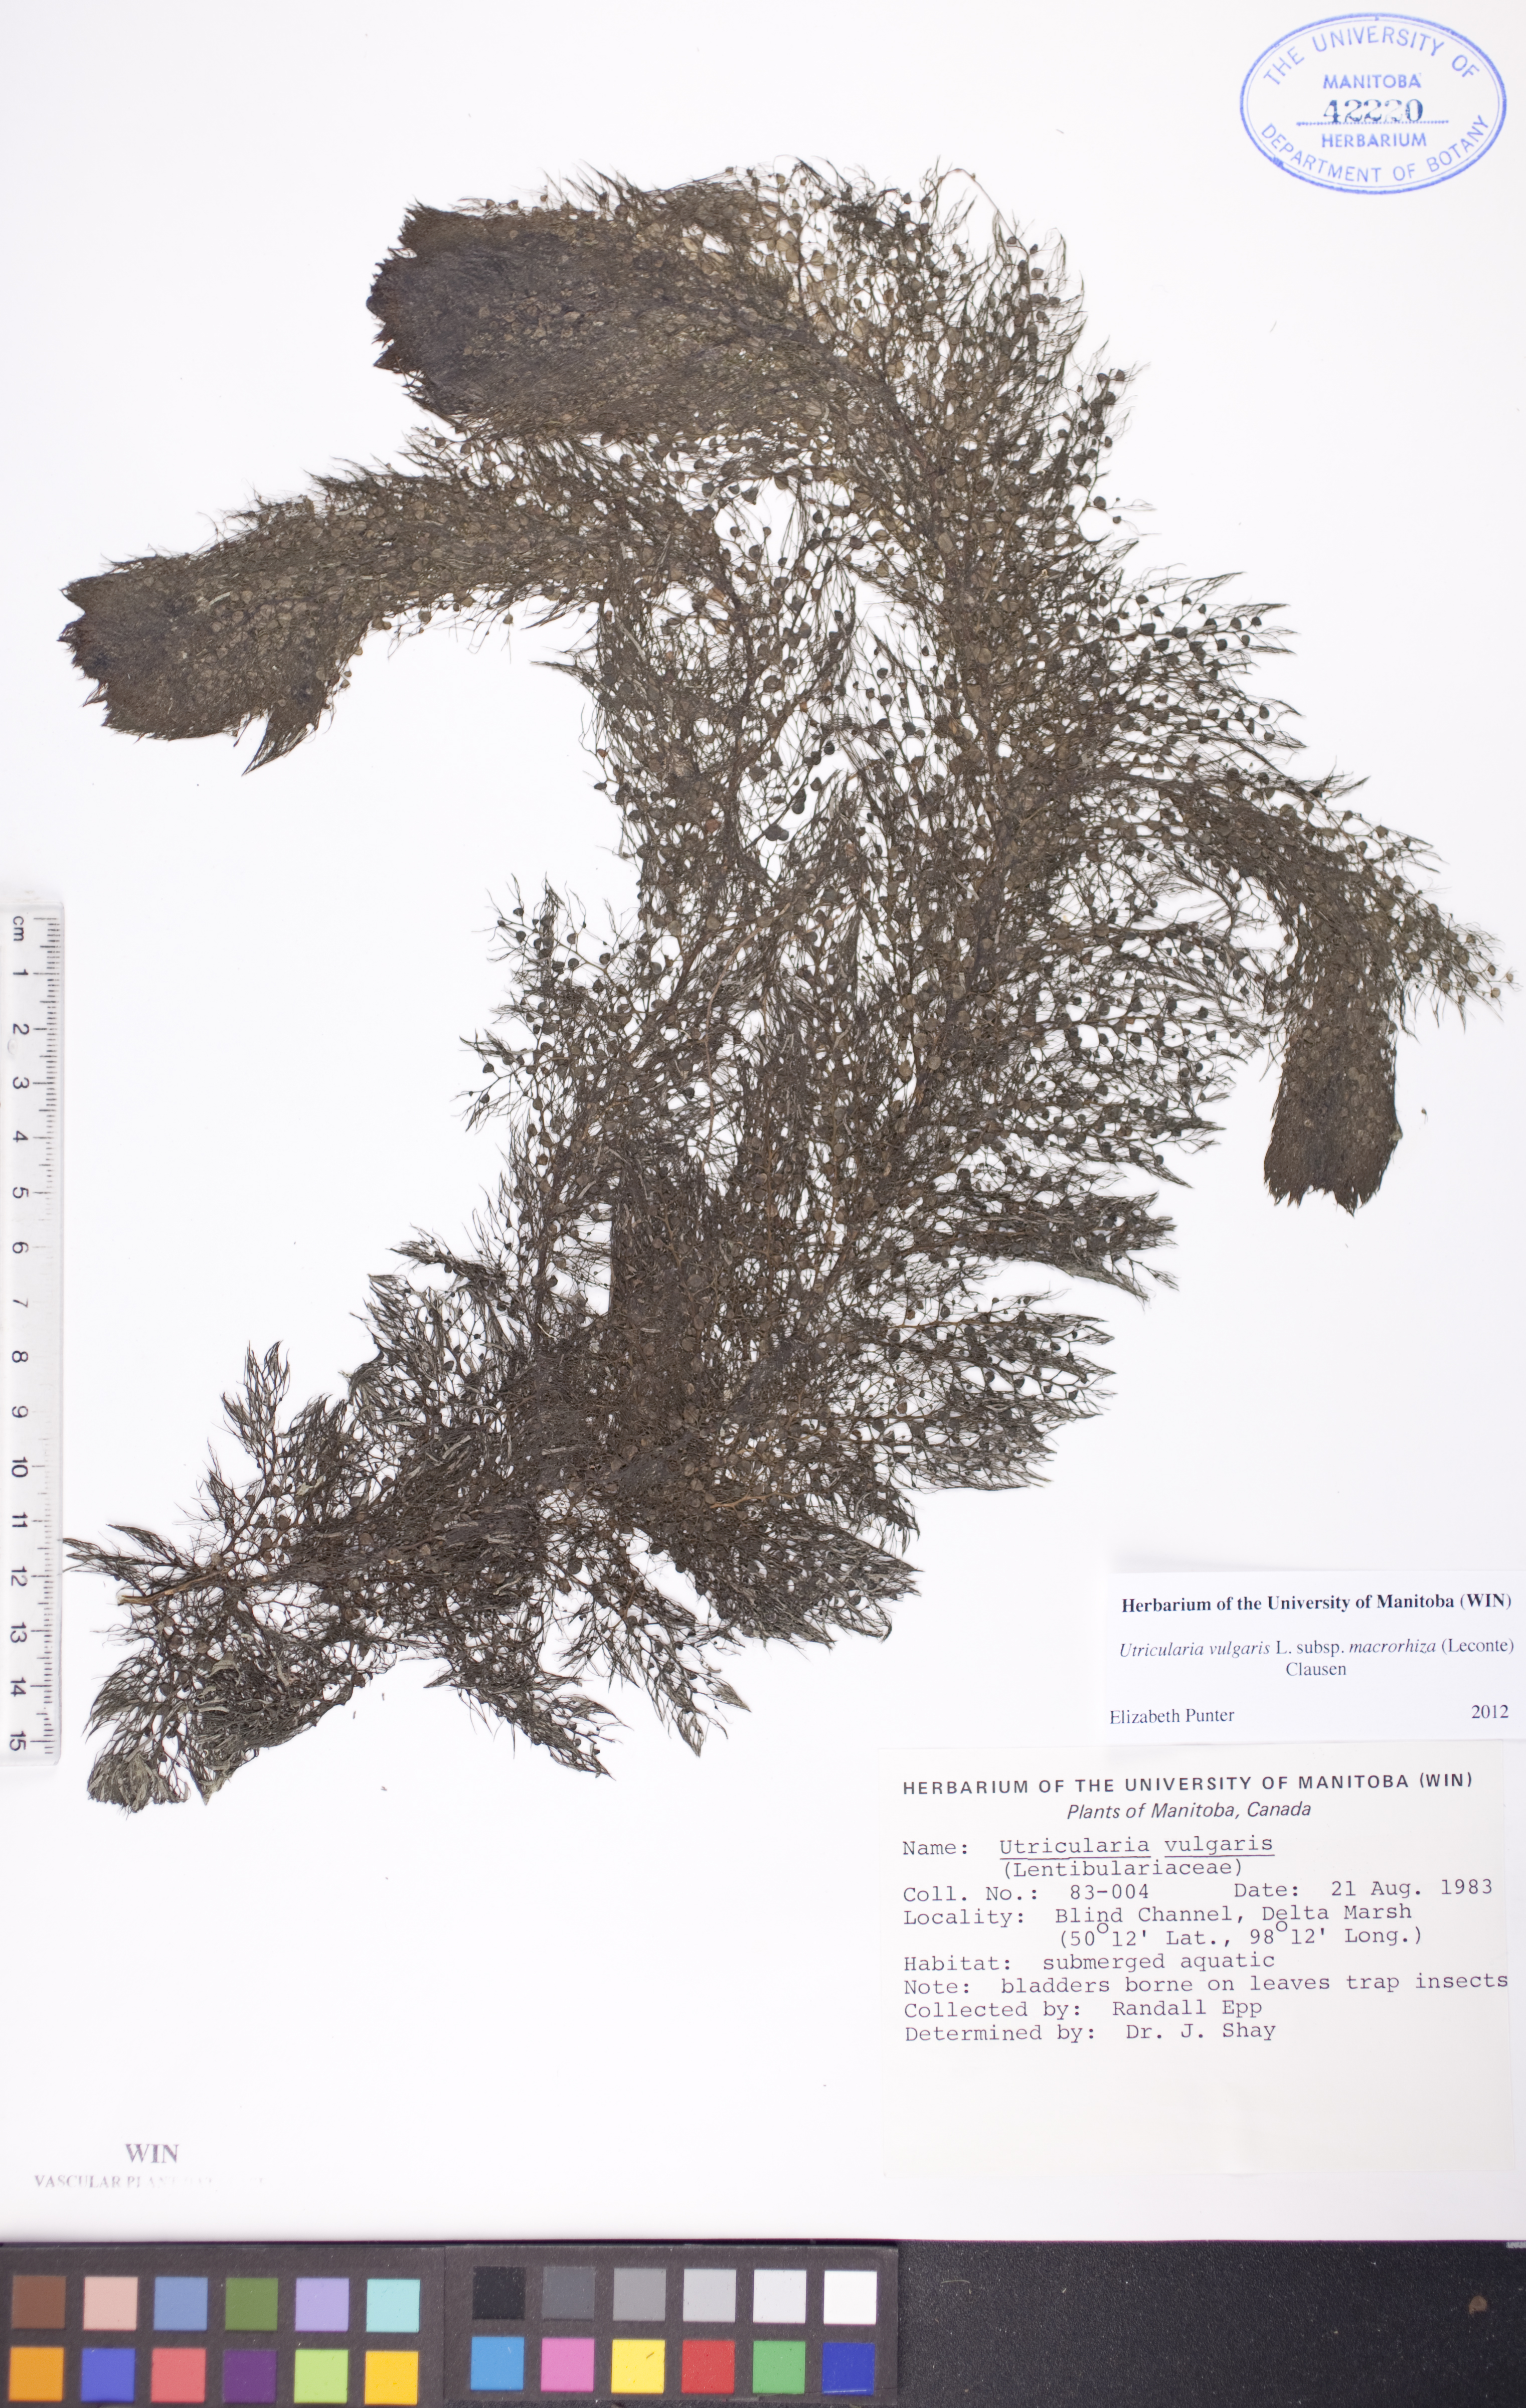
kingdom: Plantae
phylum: Tracheophyta
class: Magnoliopsida
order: Lamiales
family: Lentibulariaceae
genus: Utricularia
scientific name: Utricularia macrorhiza
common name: Common bladderwort
